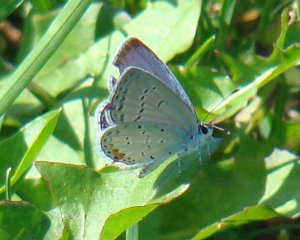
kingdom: Animalia
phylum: Arthropoda
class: Insecta
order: Lepidoptera
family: Lycaenidae
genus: Elkalyce
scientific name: Elkalyce comyntas
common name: Eastern Tailed-Blue
